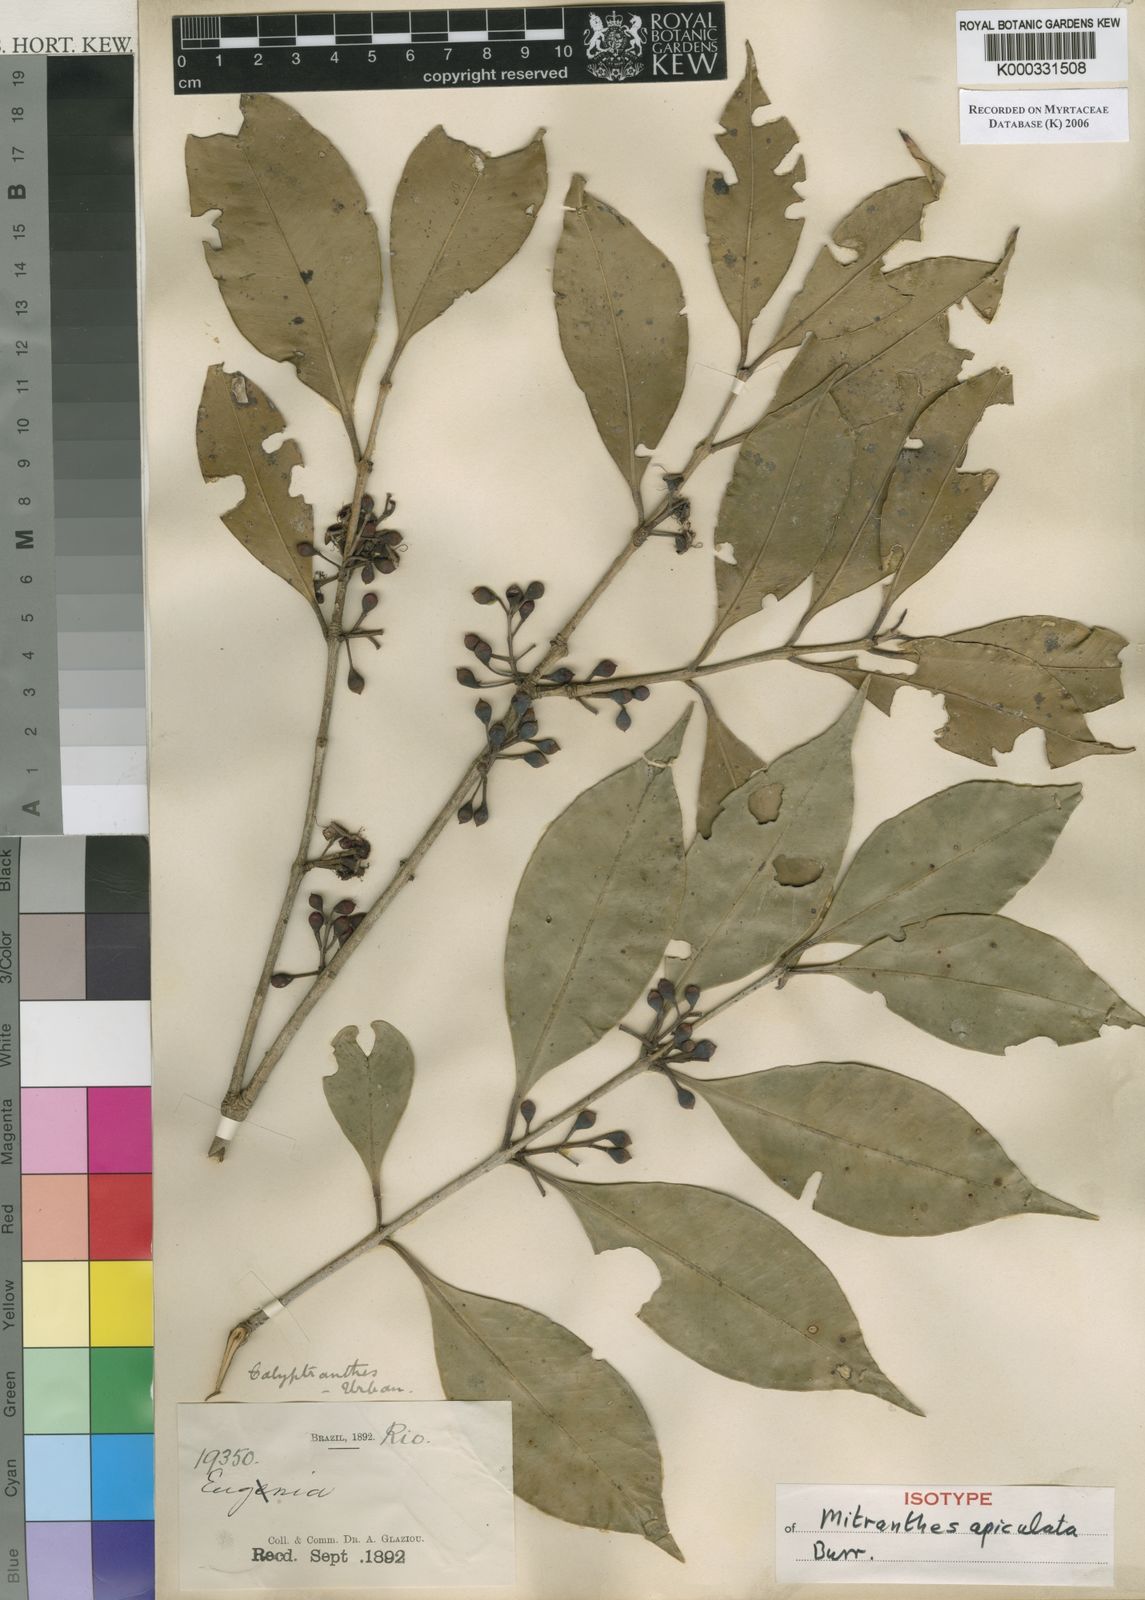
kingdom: Plantae
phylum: Tracheophyta
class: Magnoliopsida
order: Myrtales
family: Myrtaceae
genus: Neomitranthes
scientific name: Neomitranthes apiculata
